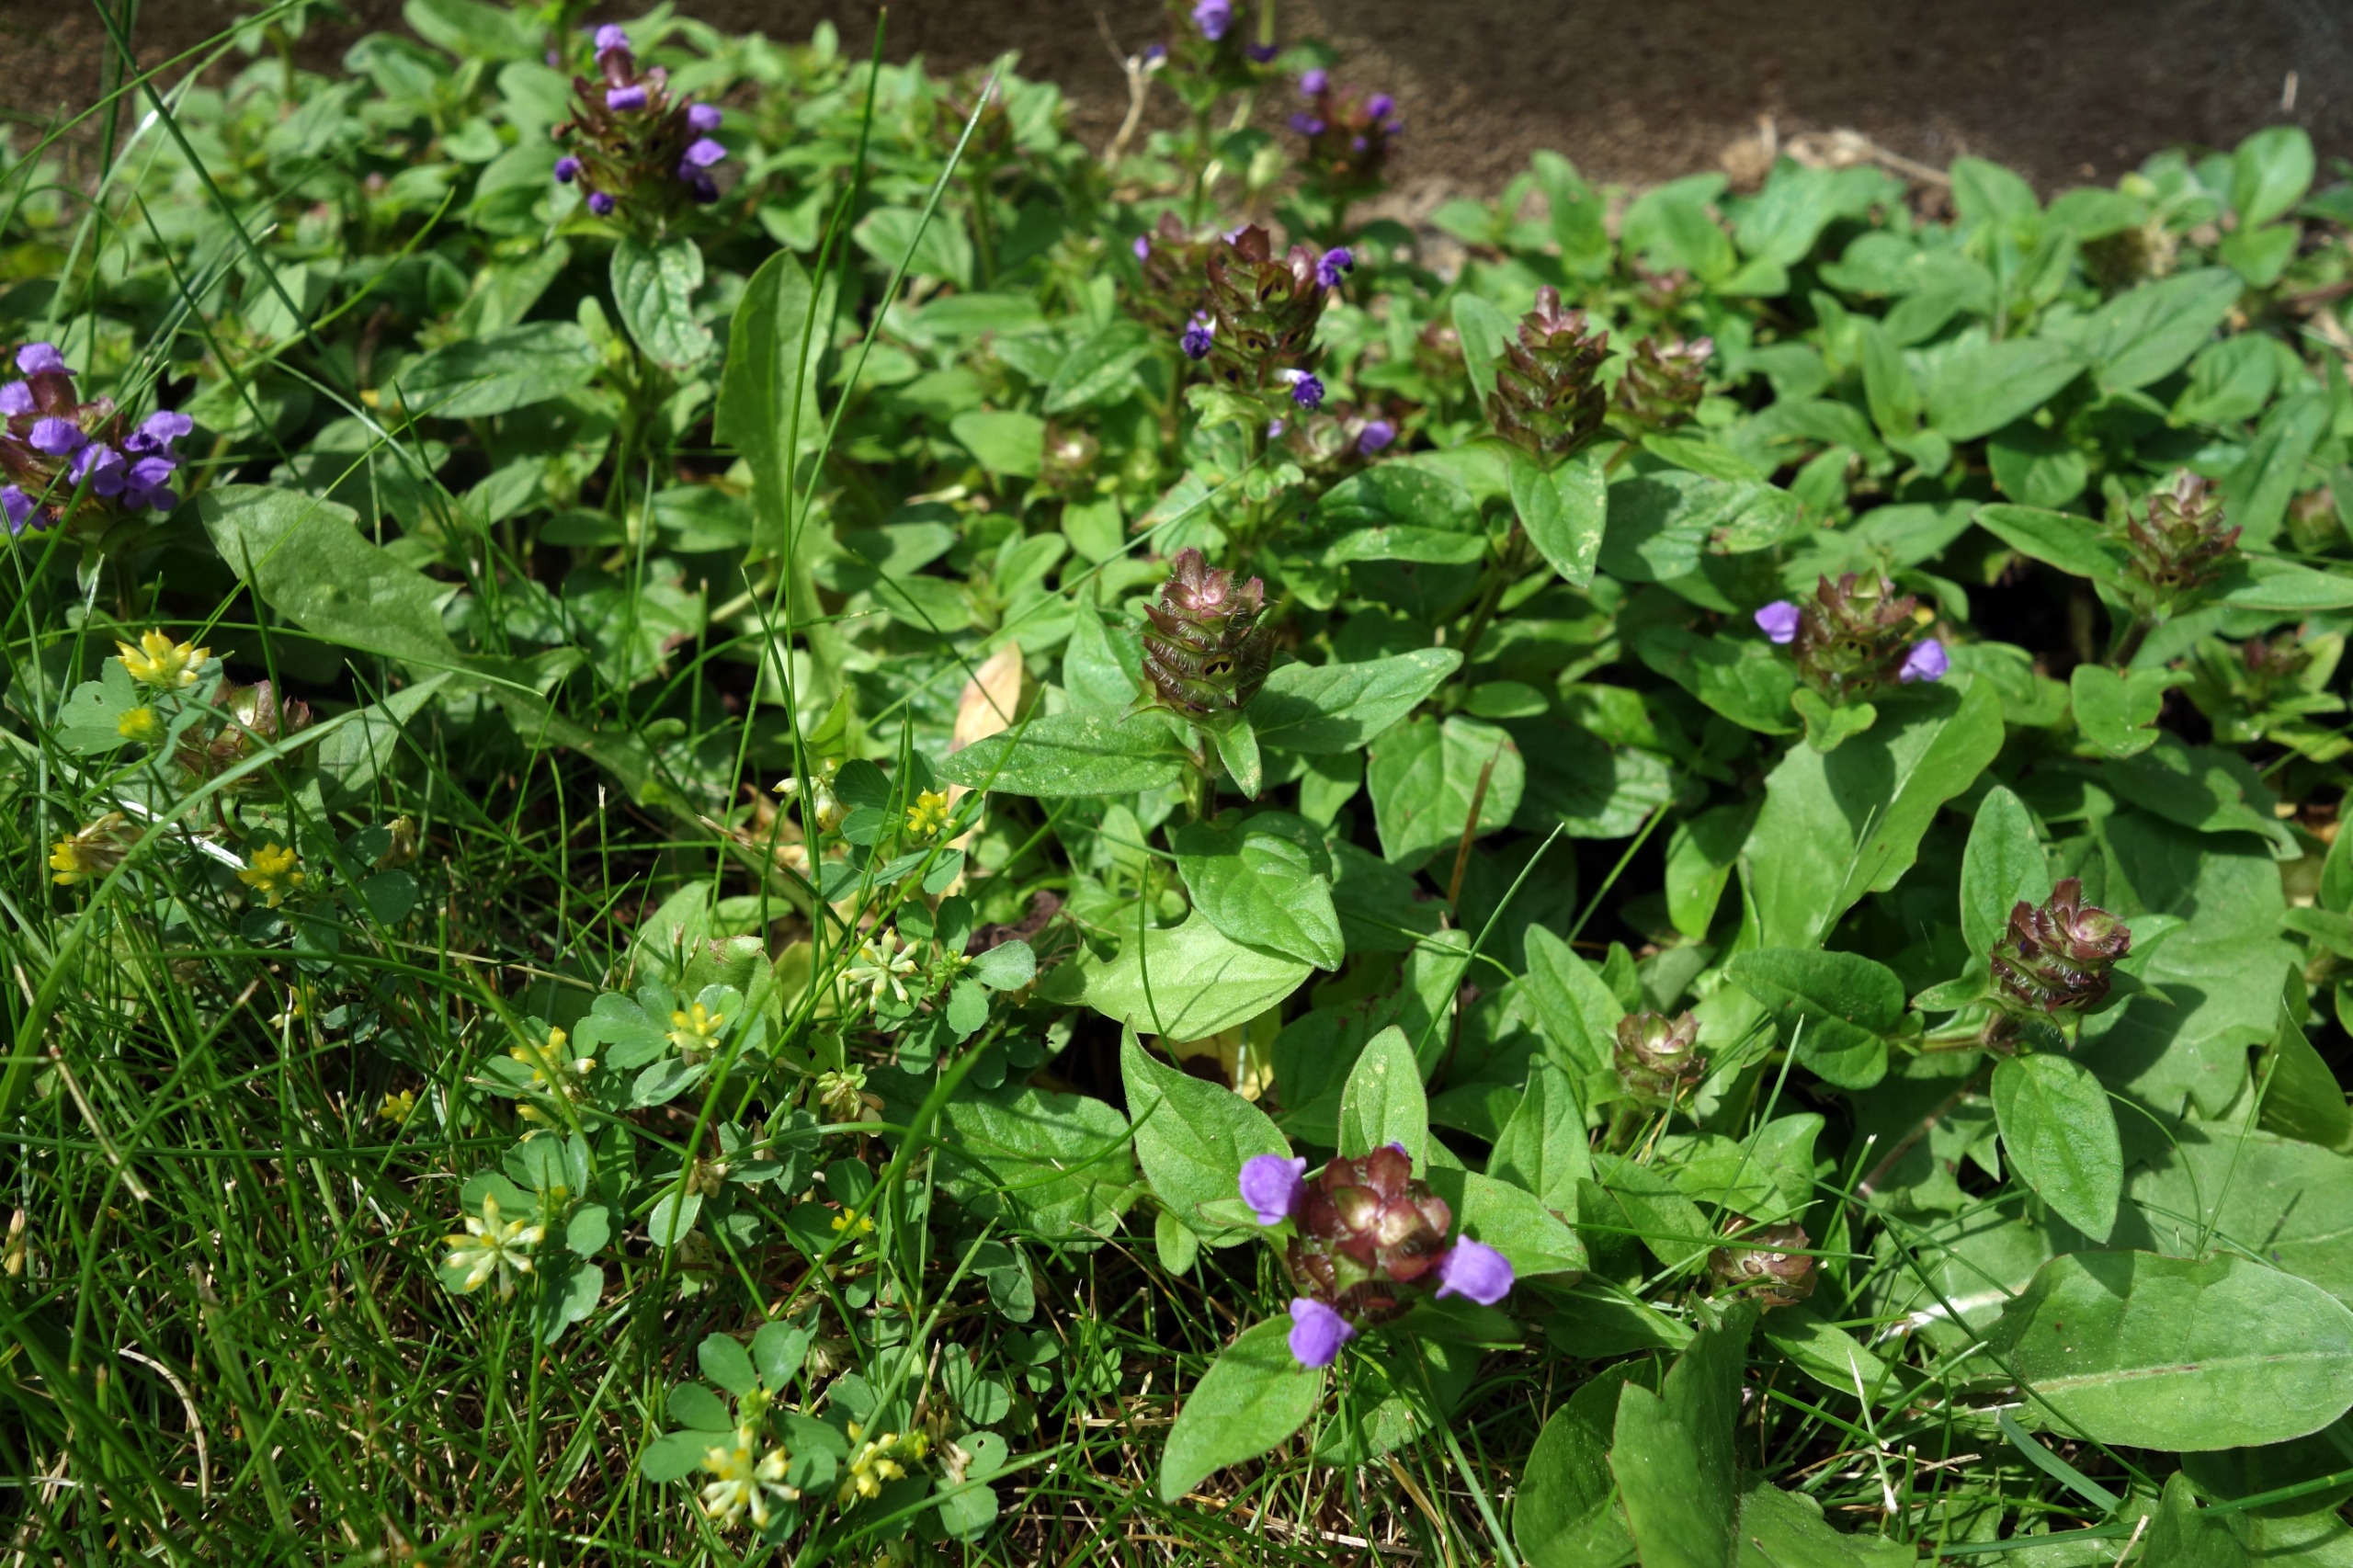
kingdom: Plantae
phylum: Tracheophyta
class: Magnoliopsida
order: Lamiales
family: Lamiaceae
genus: Prunella
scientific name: Prunella vulgaris
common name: Almindelig brunelle
